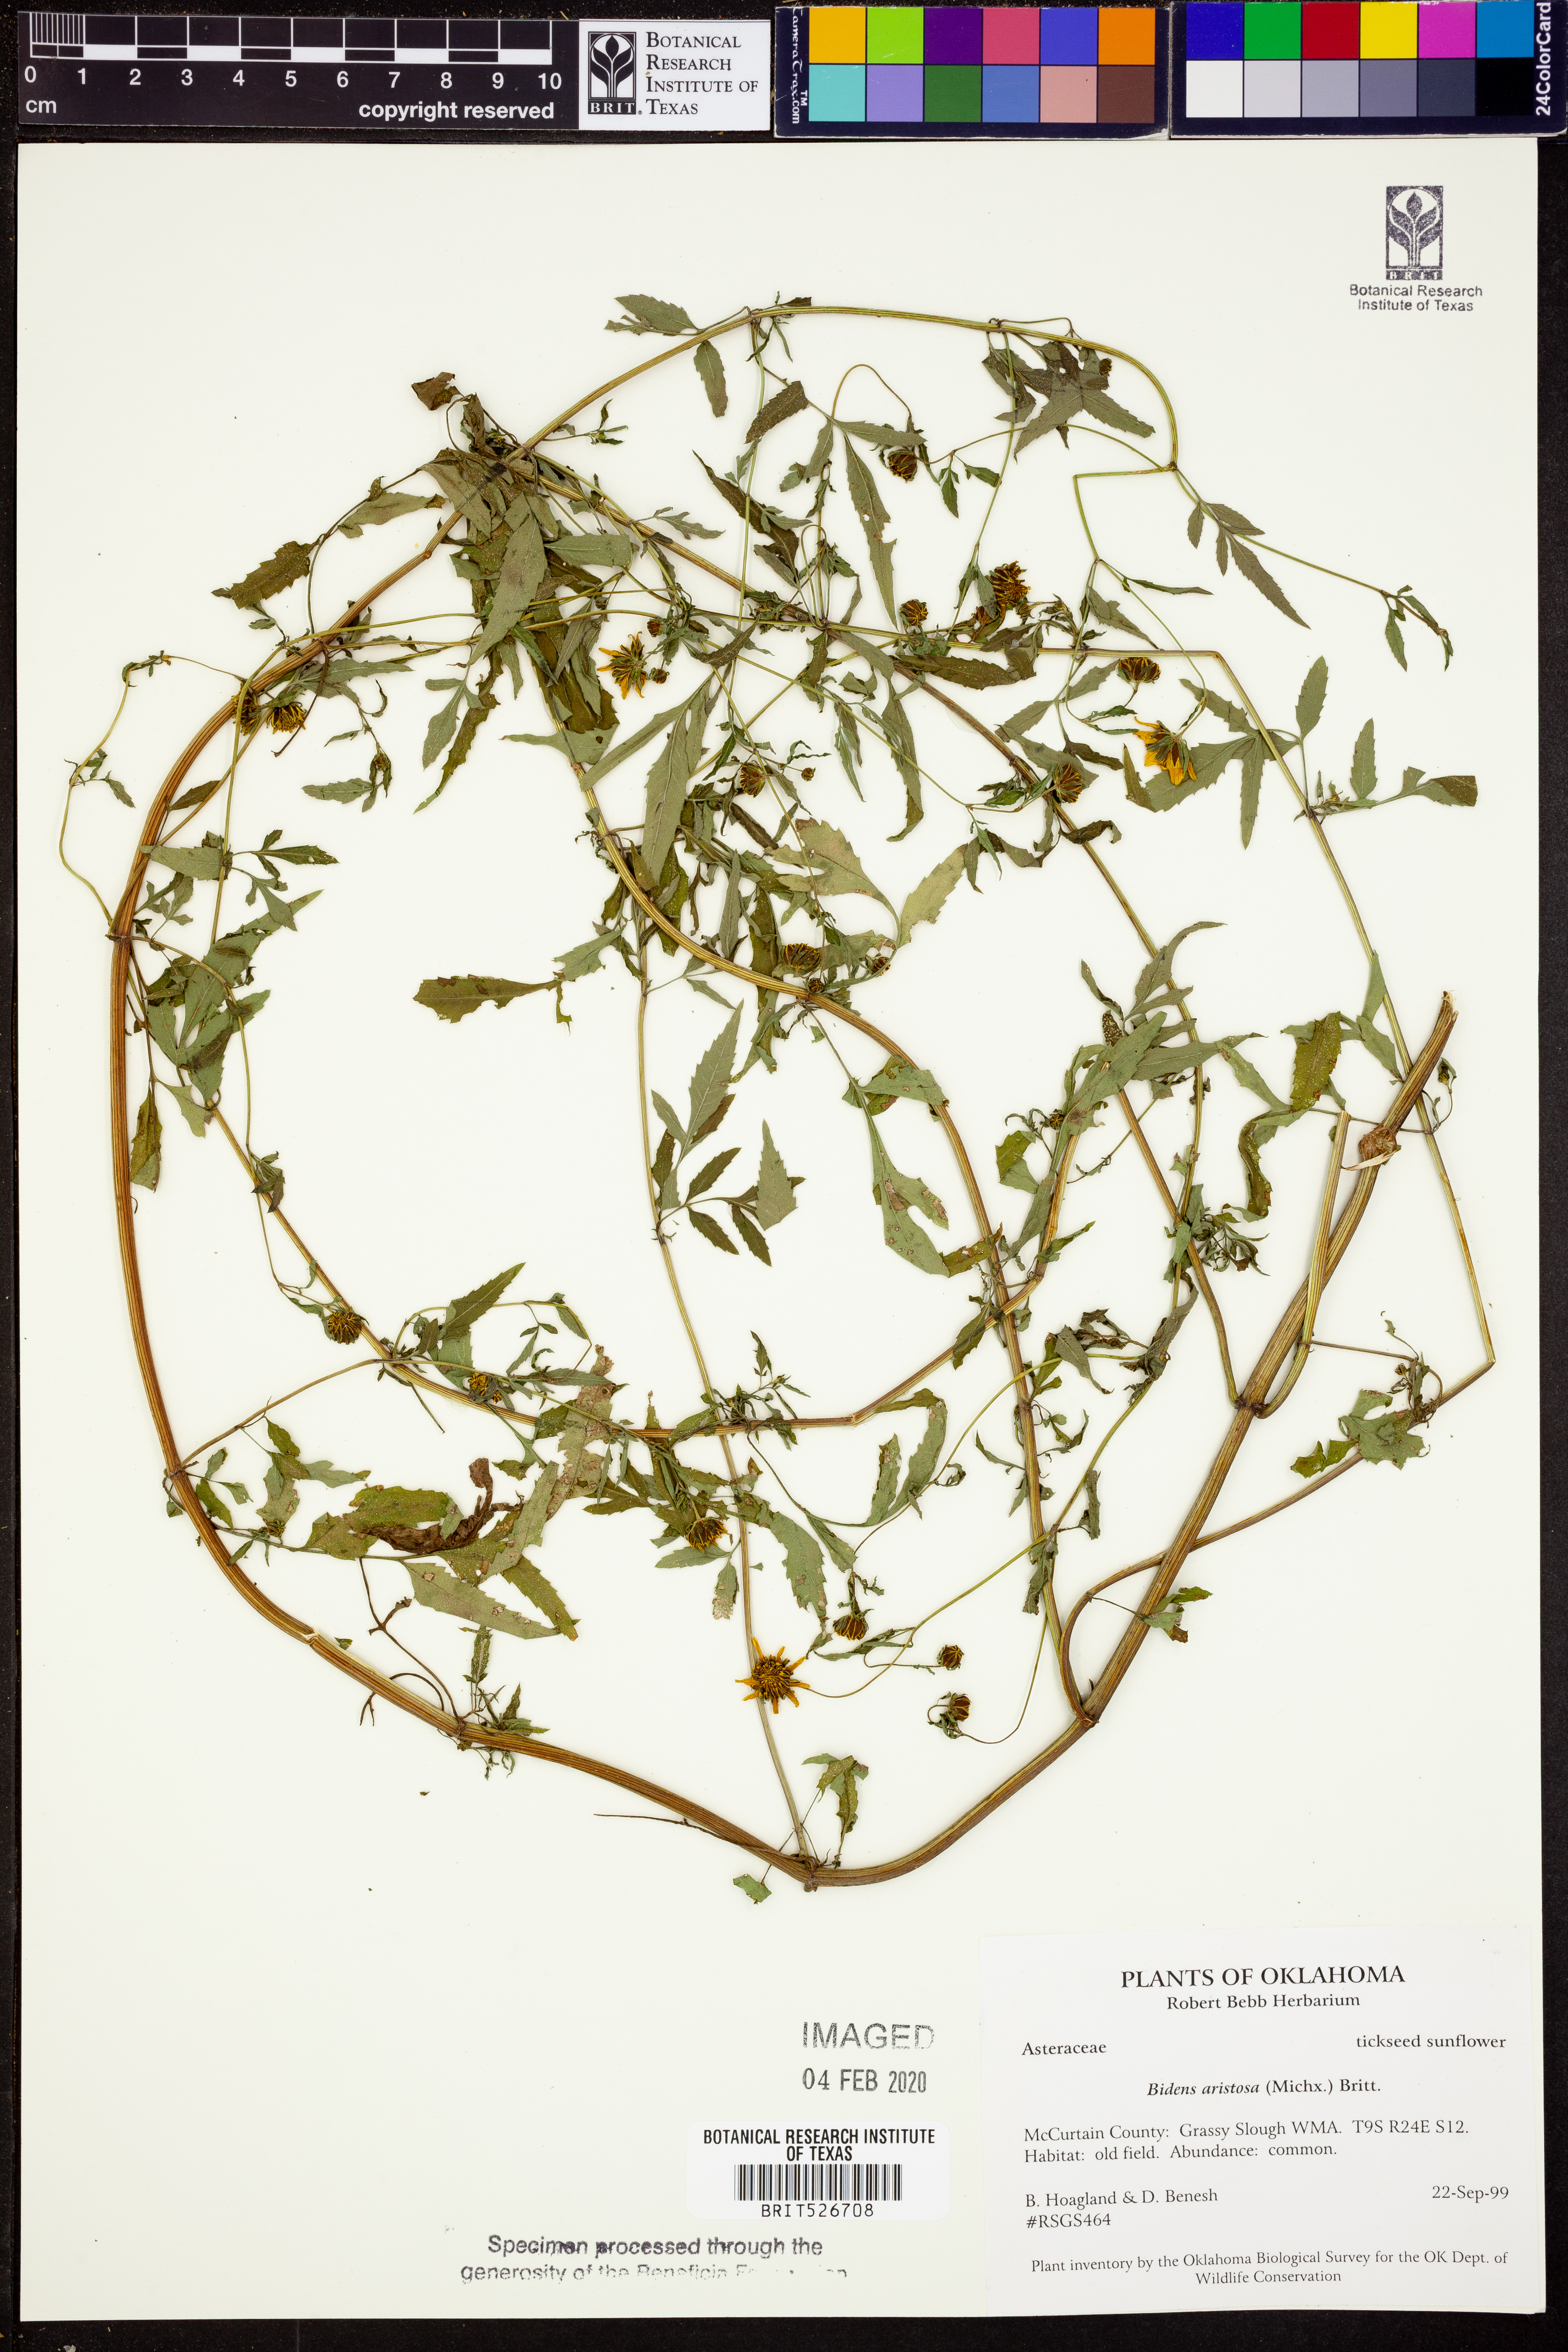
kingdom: Plantae
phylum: Tracheophyta
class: Magnoliopsida
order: Asterales
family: Asteraceae
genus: Bidens
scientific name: Bidens aristosa
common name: Western tickseed
